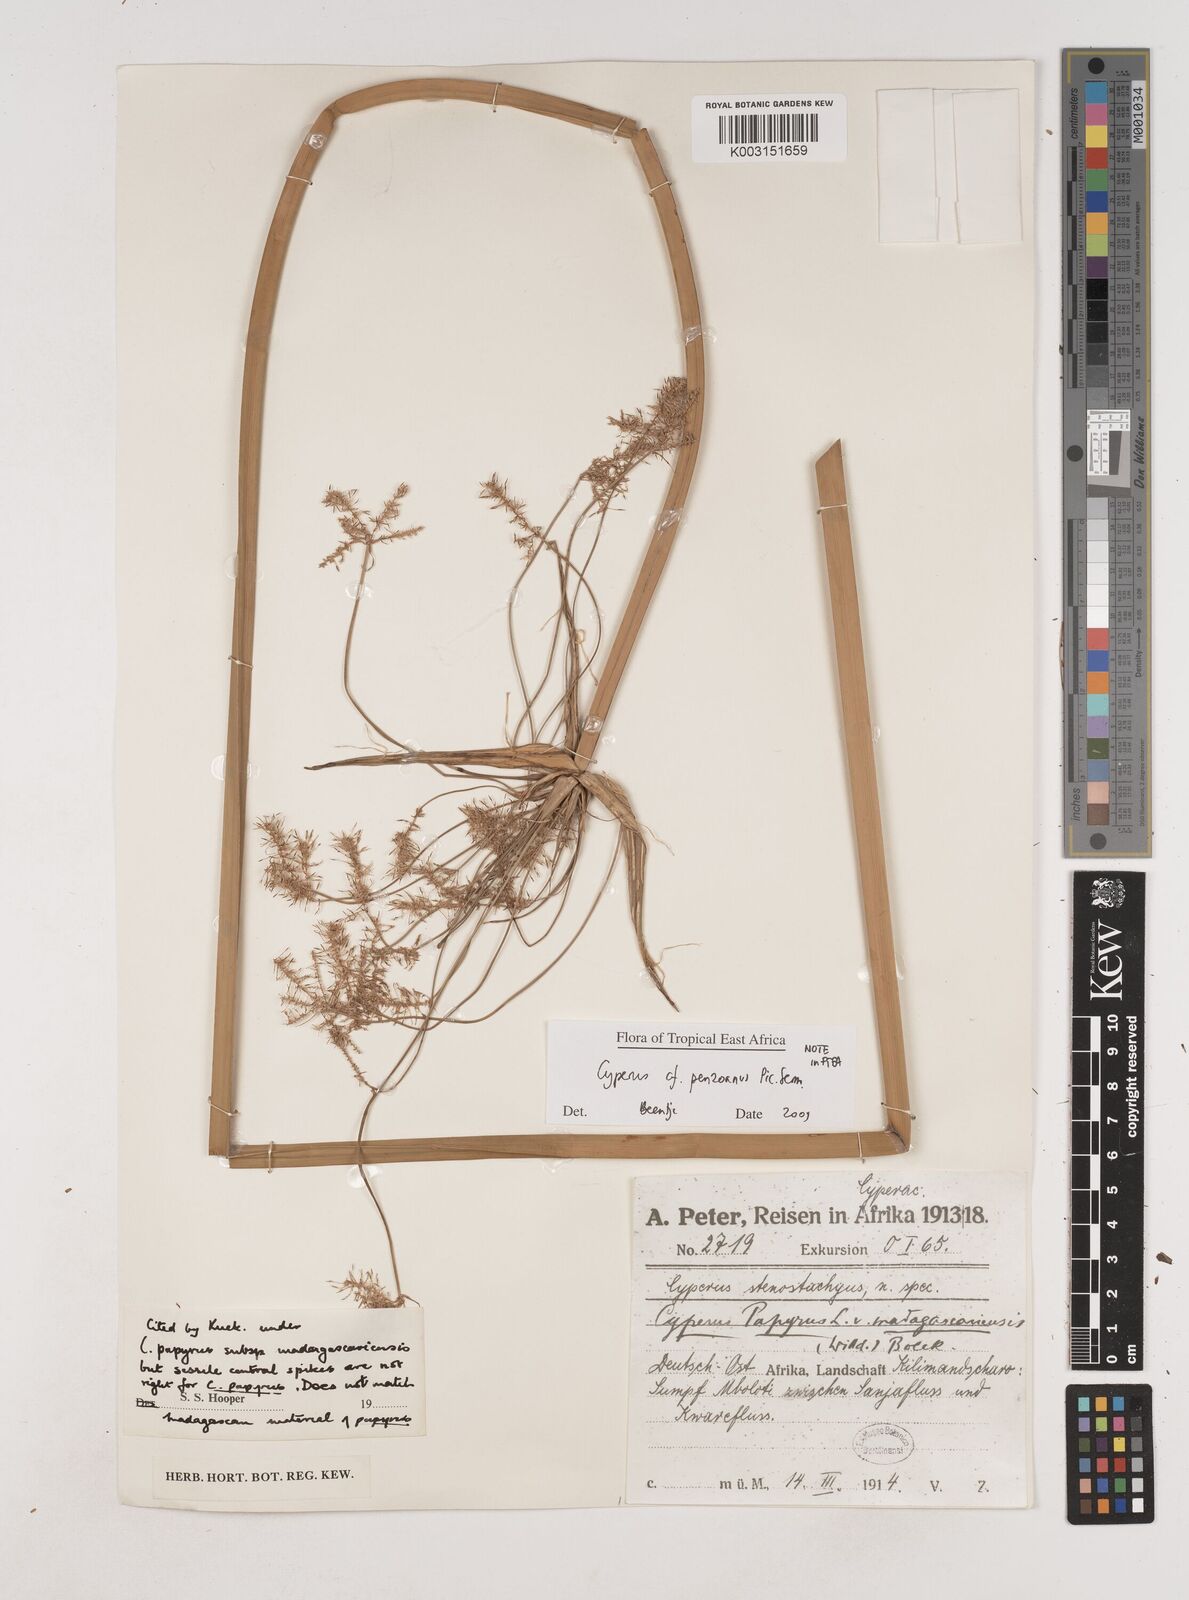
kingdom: Plantae
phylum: Tracheophyta
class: Liliopsida
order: Poales
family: Cyperaceae
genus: Cyperus
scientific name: Cyperus penzoanus
